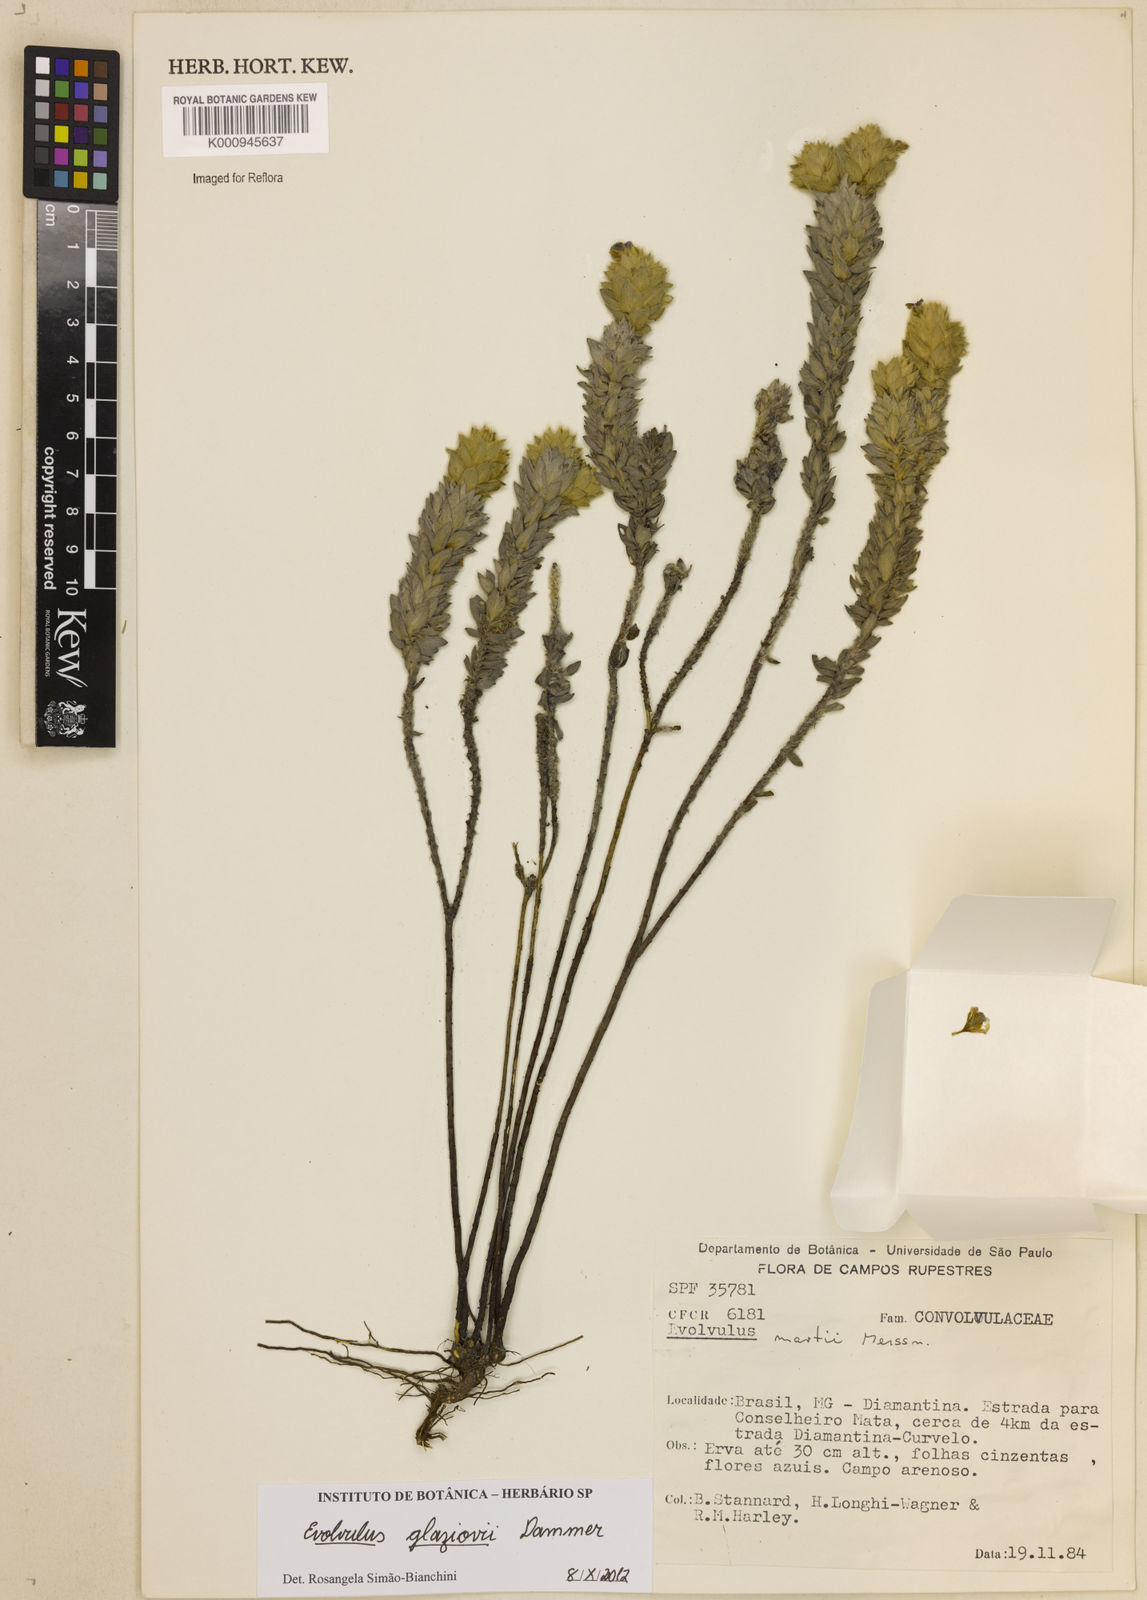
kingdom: Plantae
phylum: Tracheophyta
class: Magnoliopsida
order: Solanales
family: Convolvulaceae
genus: Evolvulus
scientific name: Evolvulus glaziovii
